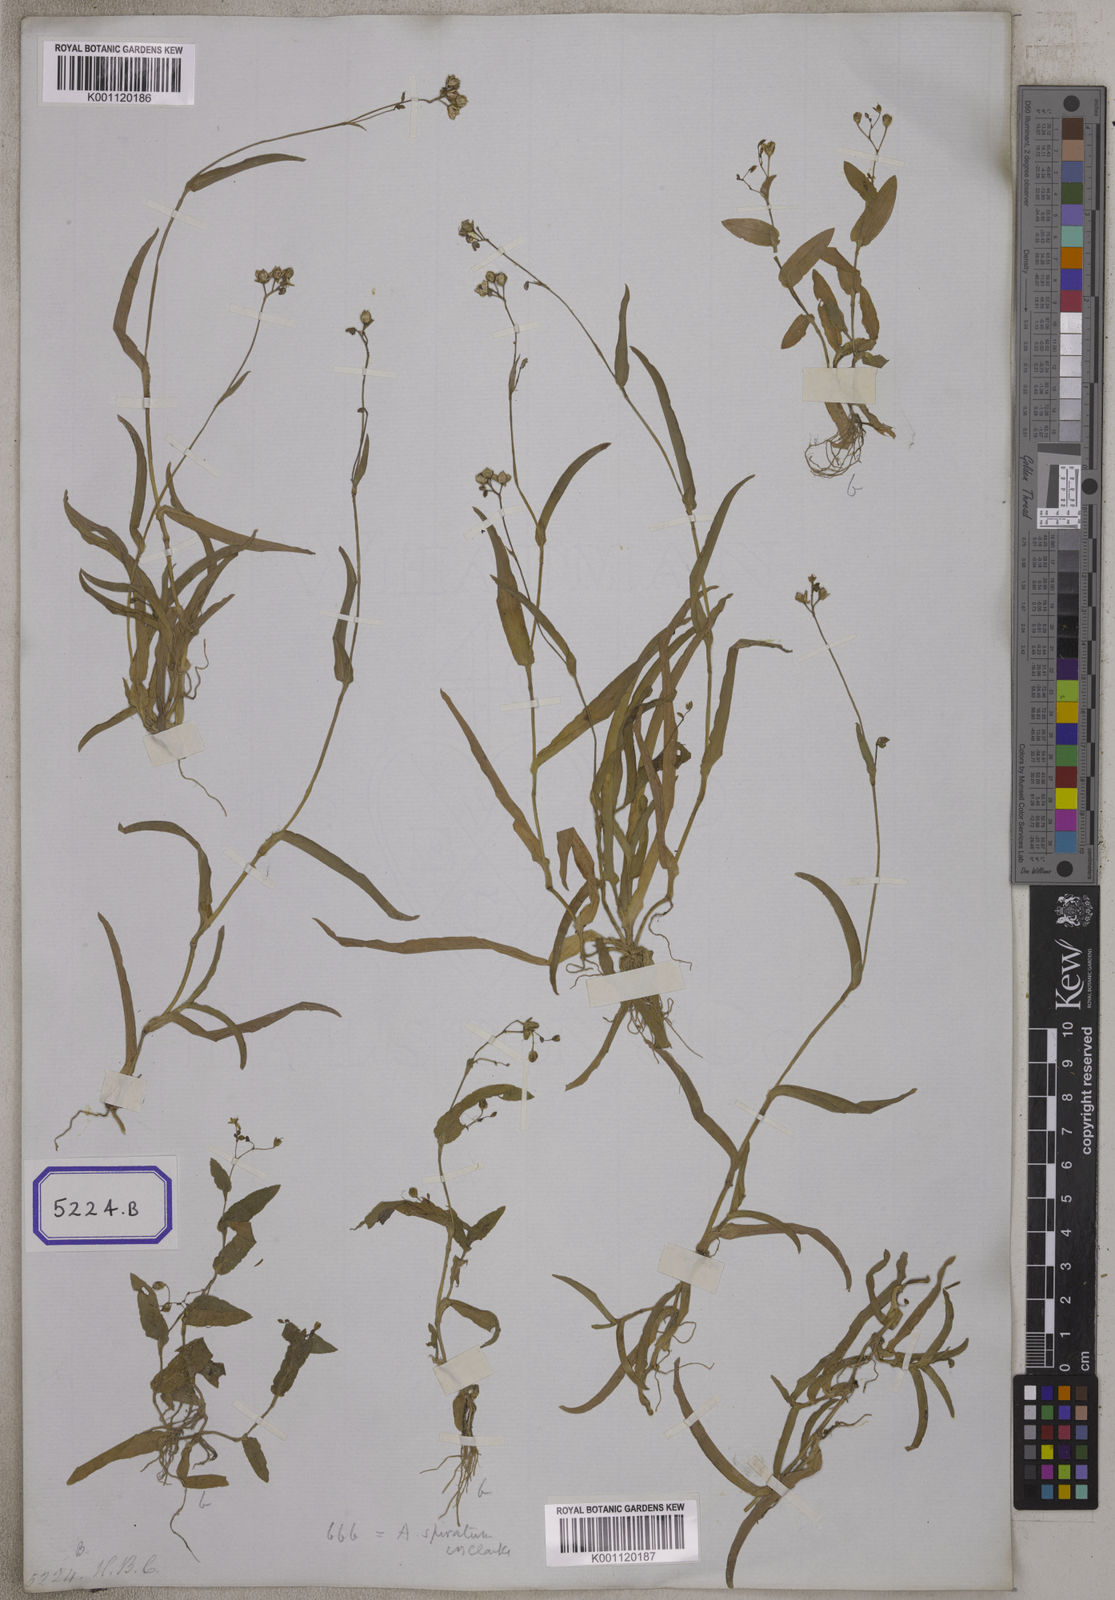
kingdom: Plantae
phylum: Tracheophyta
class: Liliopsida
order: Commelinales
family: Commelinaceae
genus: Aneilema
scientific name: Aneilema
